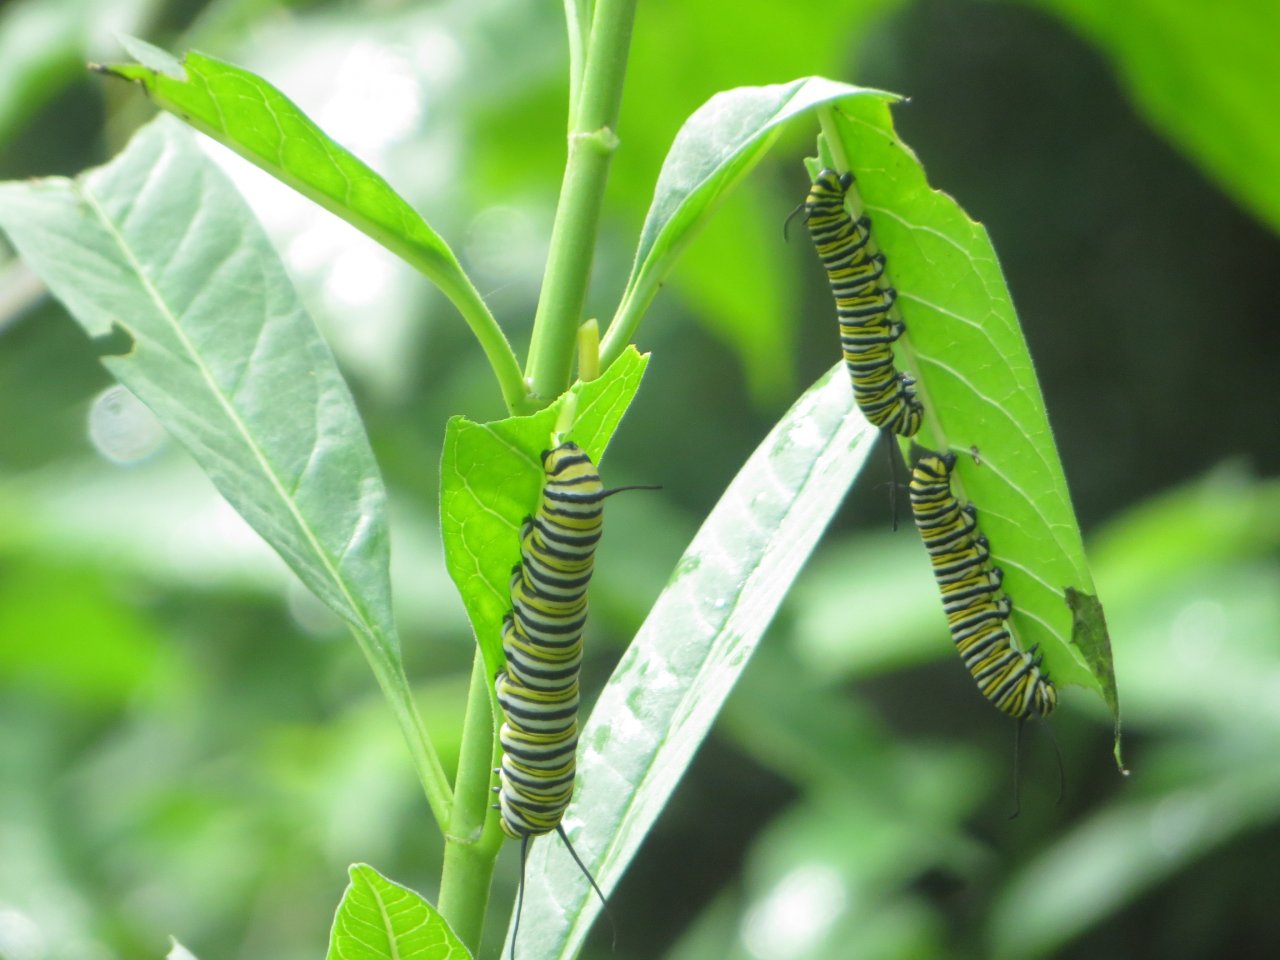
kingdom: Animalia
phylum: Arthropoda
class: Insecta
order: Lepidoptera
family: Nymphalidae
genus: Danaus
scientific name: Danaus plexippus
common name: Monarch
